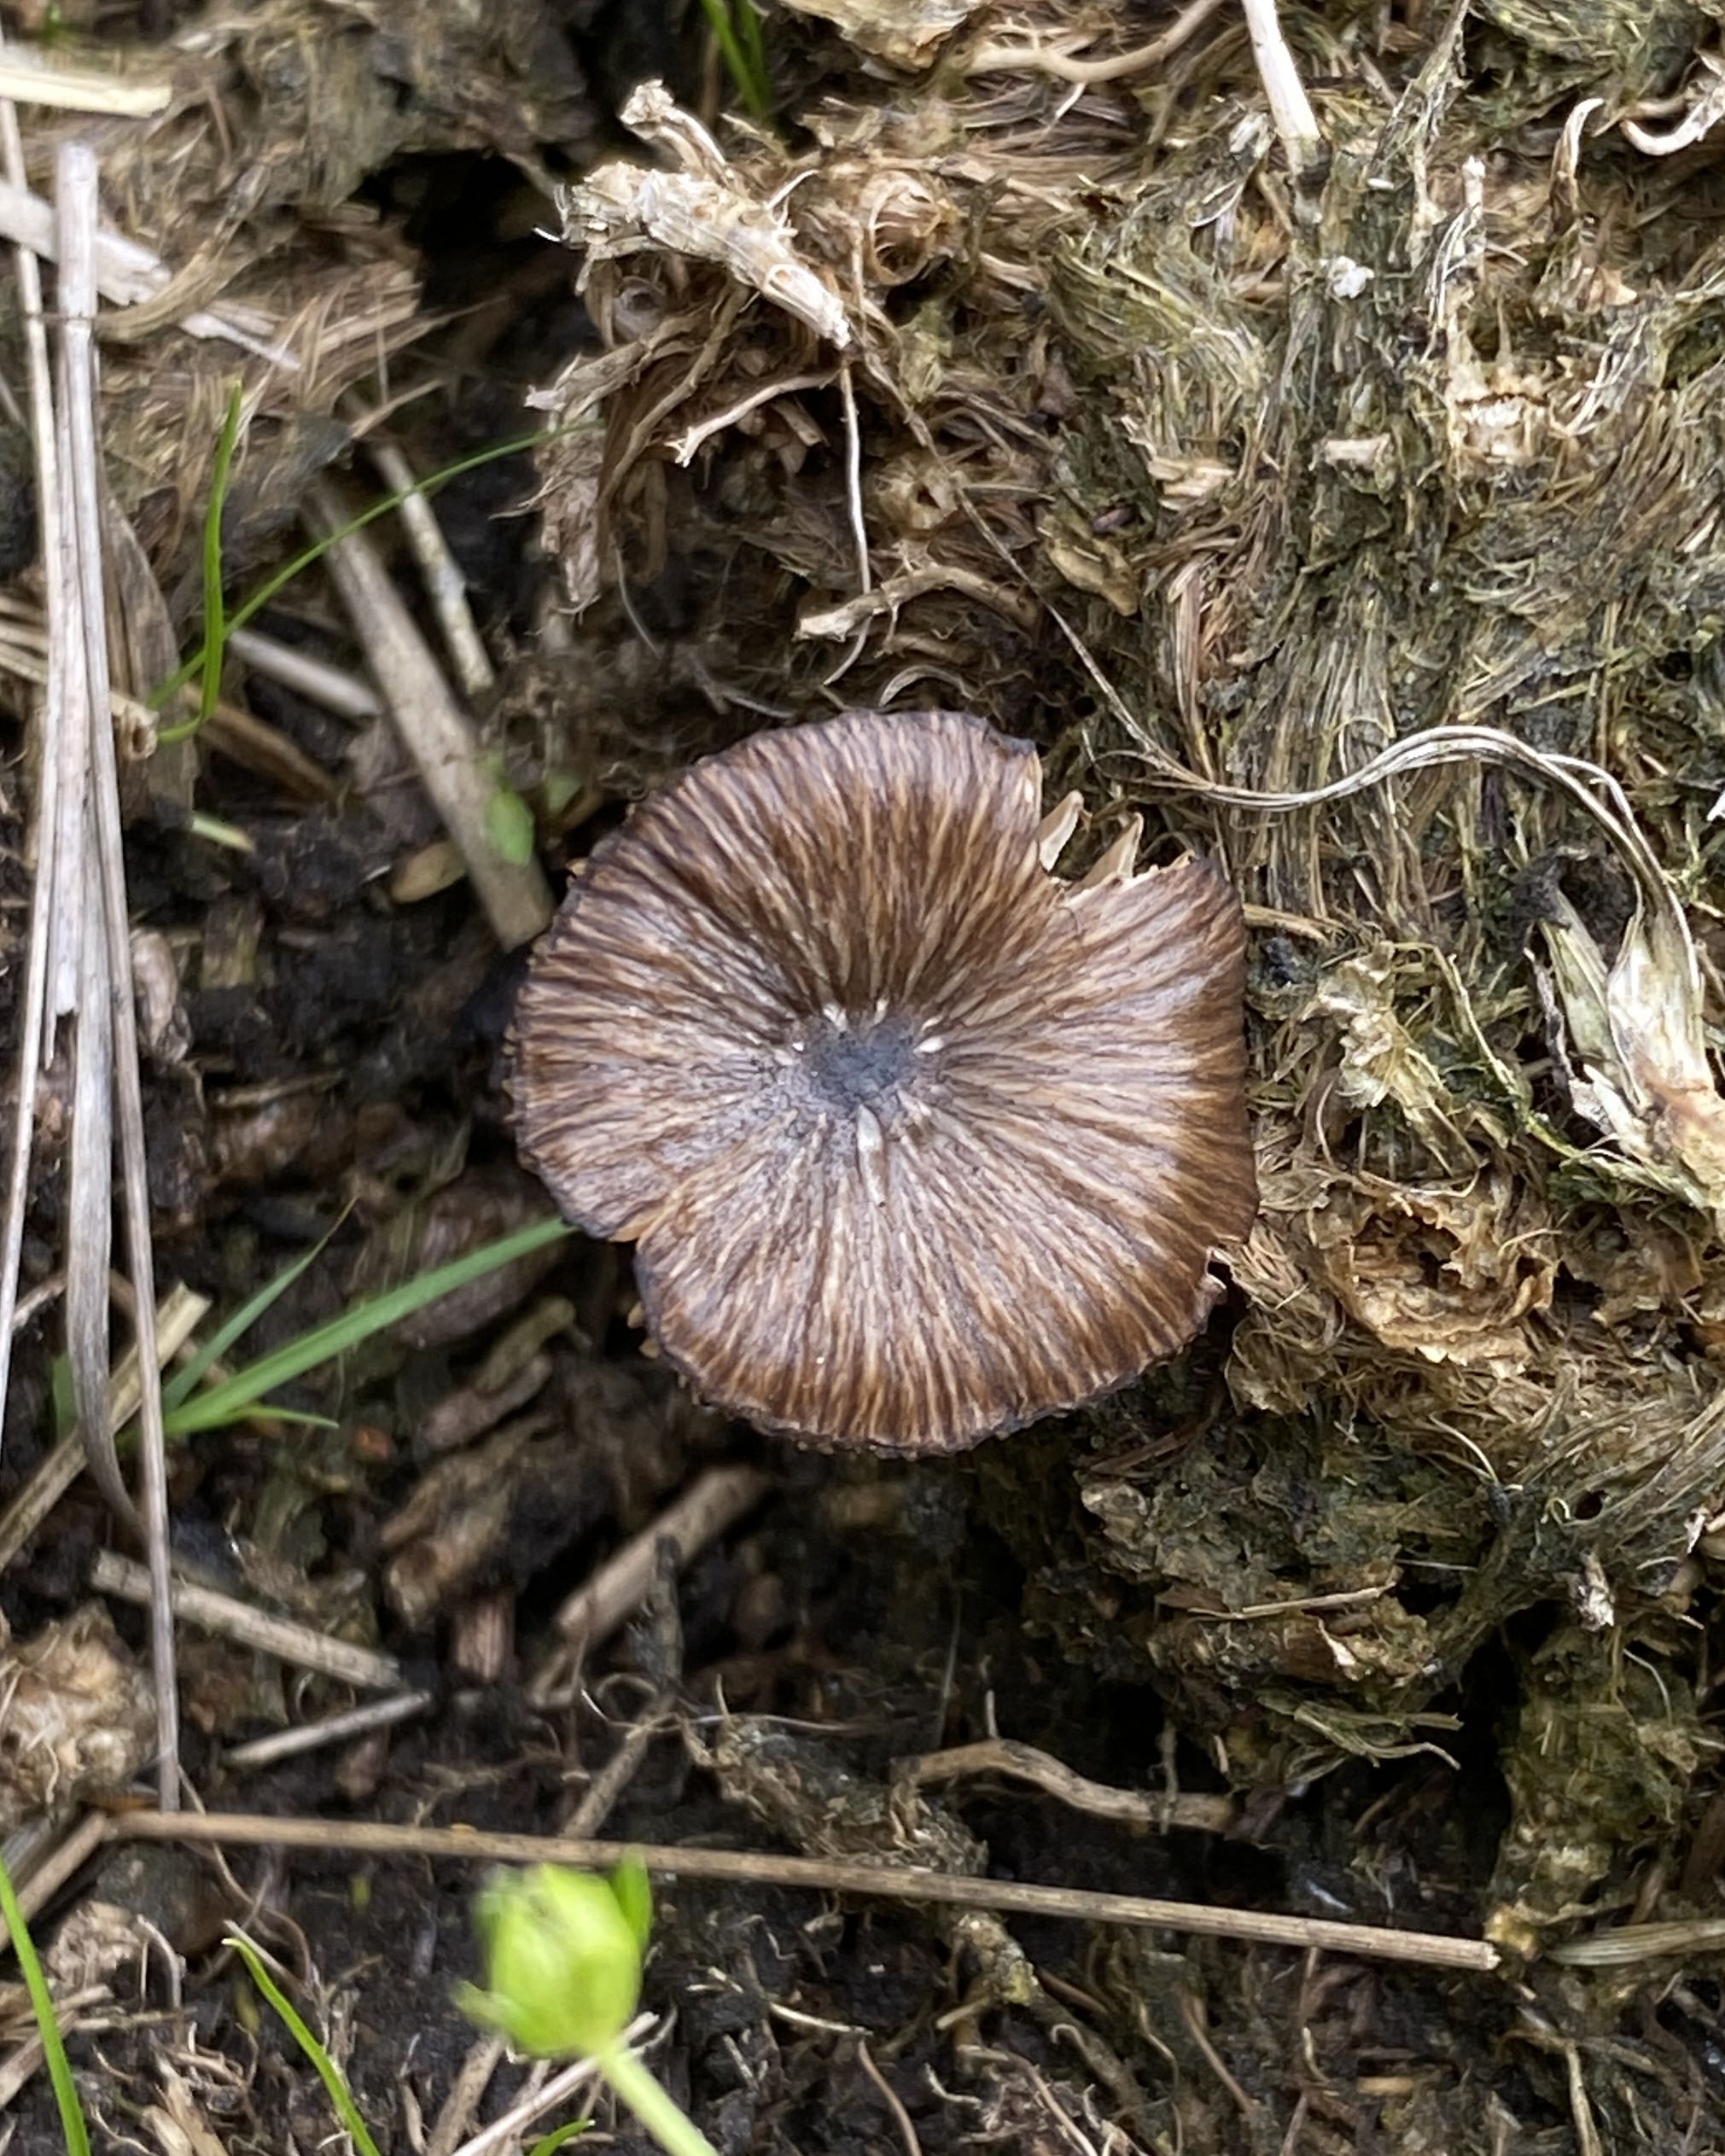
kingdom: Fungi
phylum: Basidiomycota
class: Agaricomycetes
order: Agaricales
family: Entolomataceae
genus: Entoloma
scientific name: Entoloma
